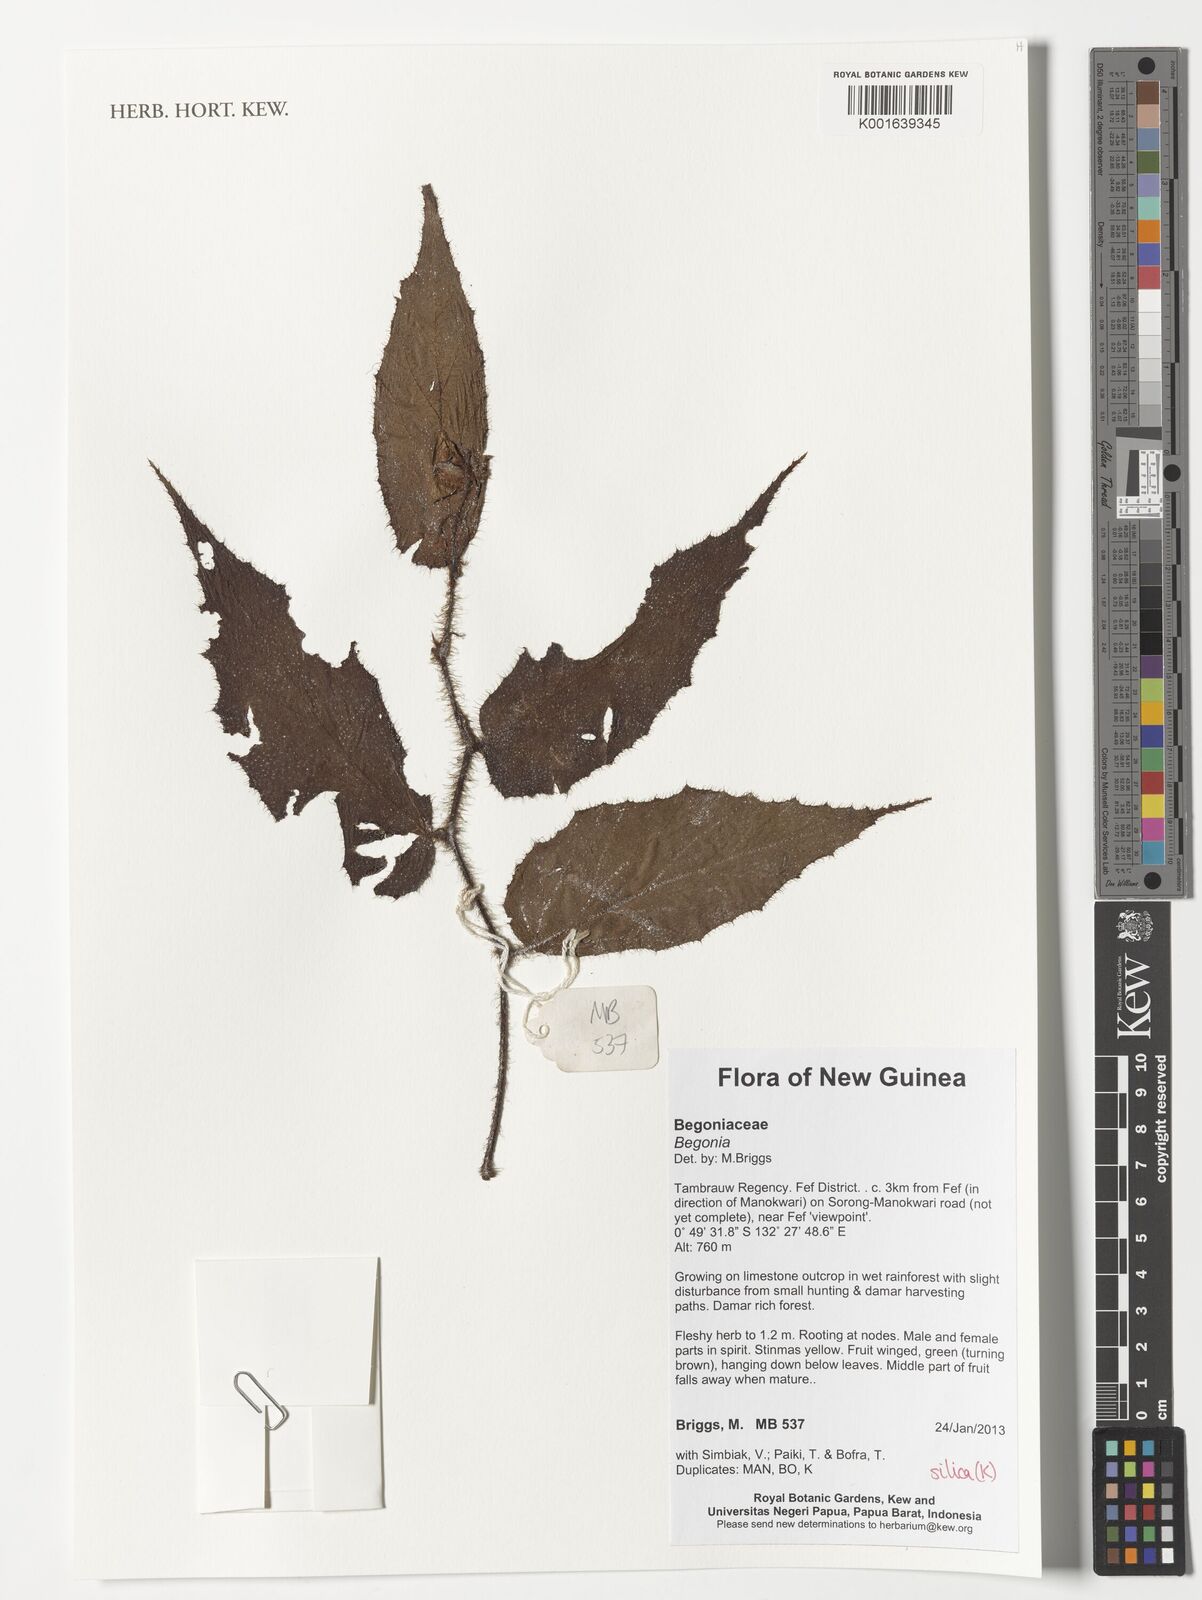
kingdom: Plantae
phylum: Tracheophyta
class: Magnoliopsida
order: Cucurbitales
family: Begoniaceae
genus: Begonia
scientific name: Begonia
